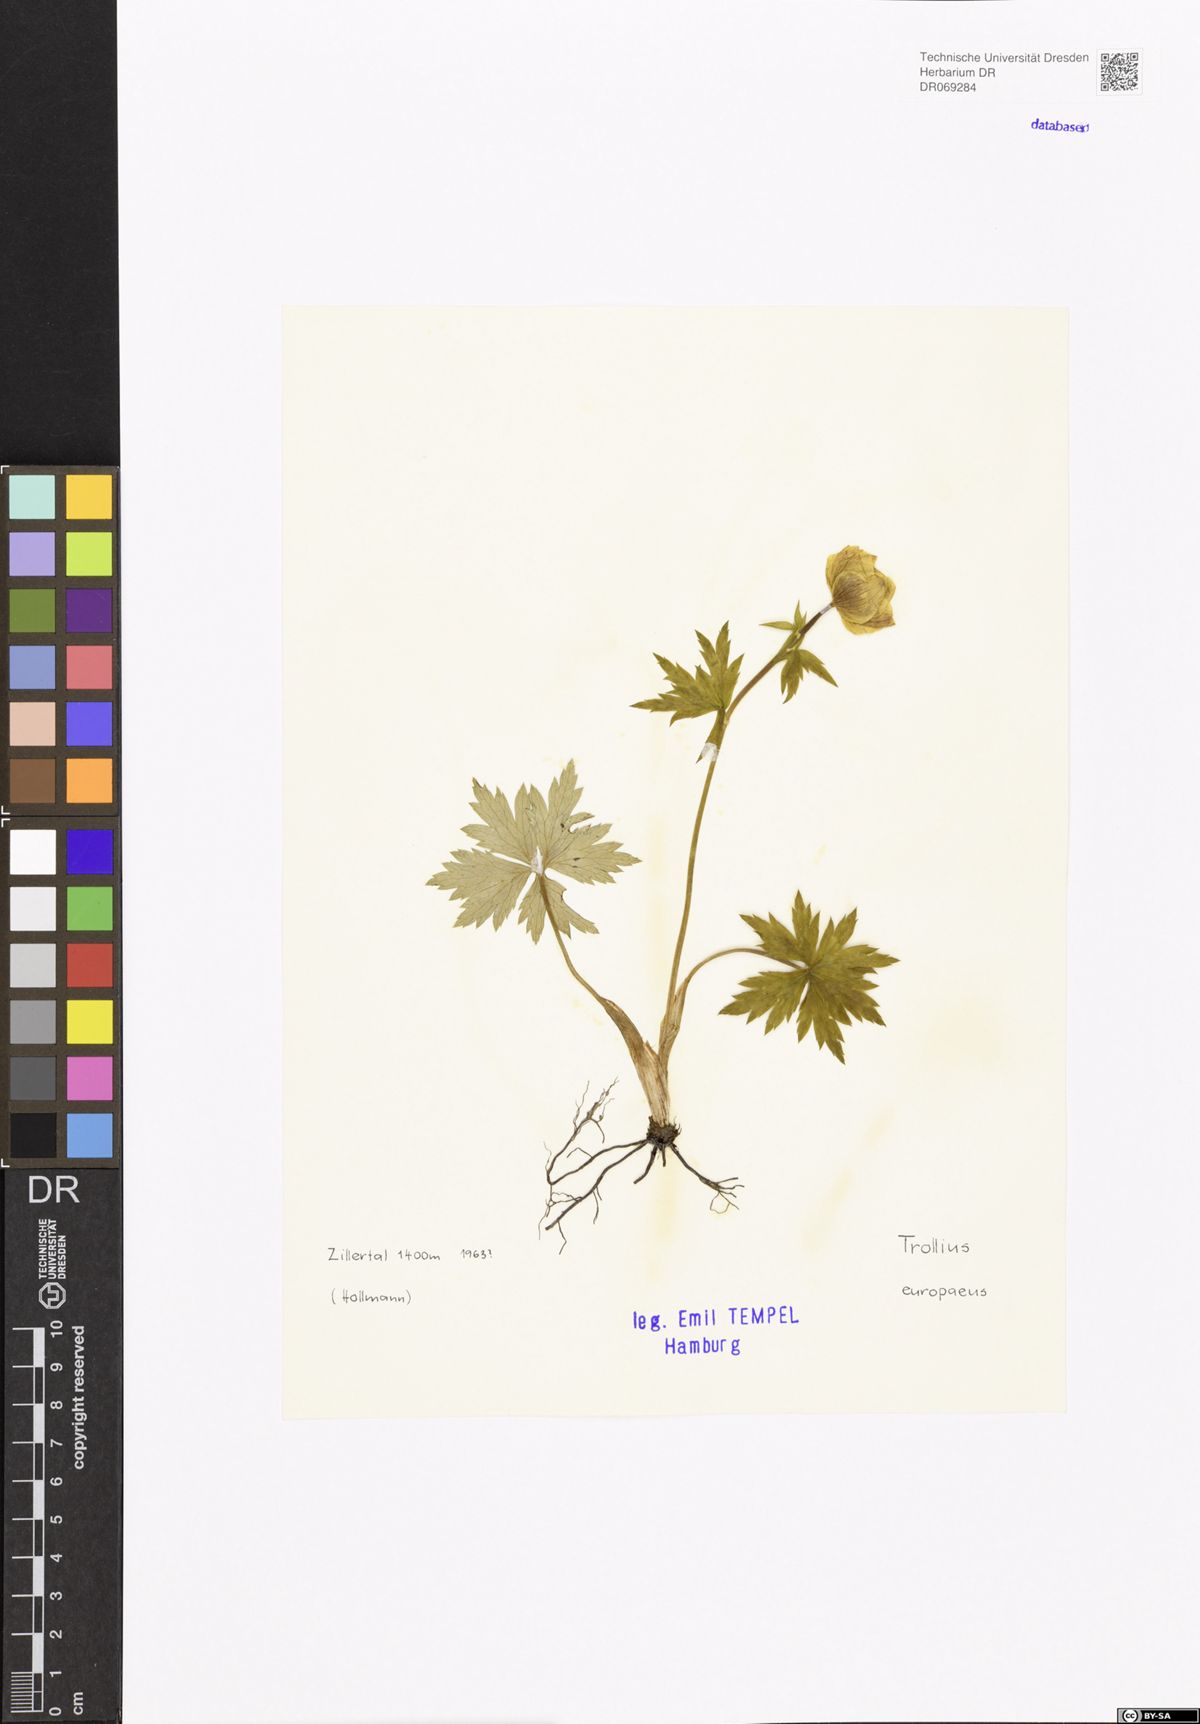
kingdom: Plantae
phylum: Tracheophyta
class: Magnoliopsida
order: Ranunculales
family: Ranunculaceae
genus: Trollius
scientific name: Trollius europaeus
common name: European globeflower
